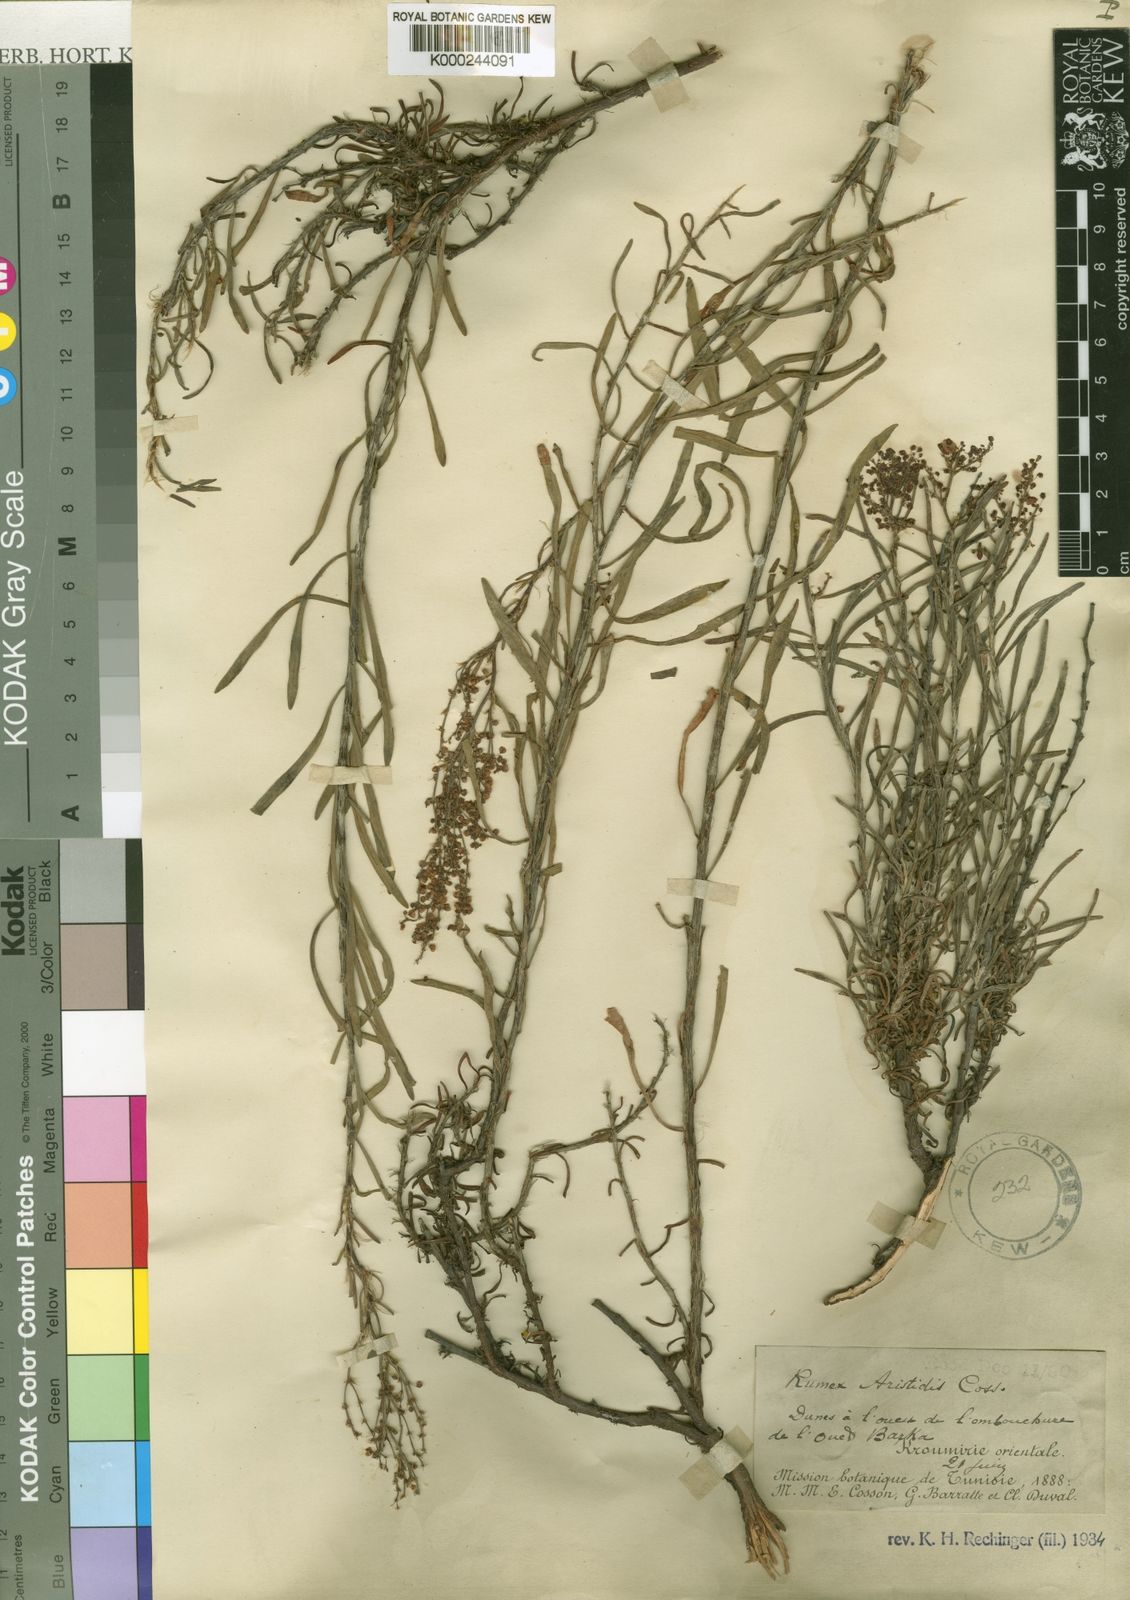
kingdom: Plantae
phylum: Tracheophyta
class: Magnoliopsida
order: Caryophyllales
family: Polygonaceae
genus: Rumex
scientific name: Rumex aristidis
